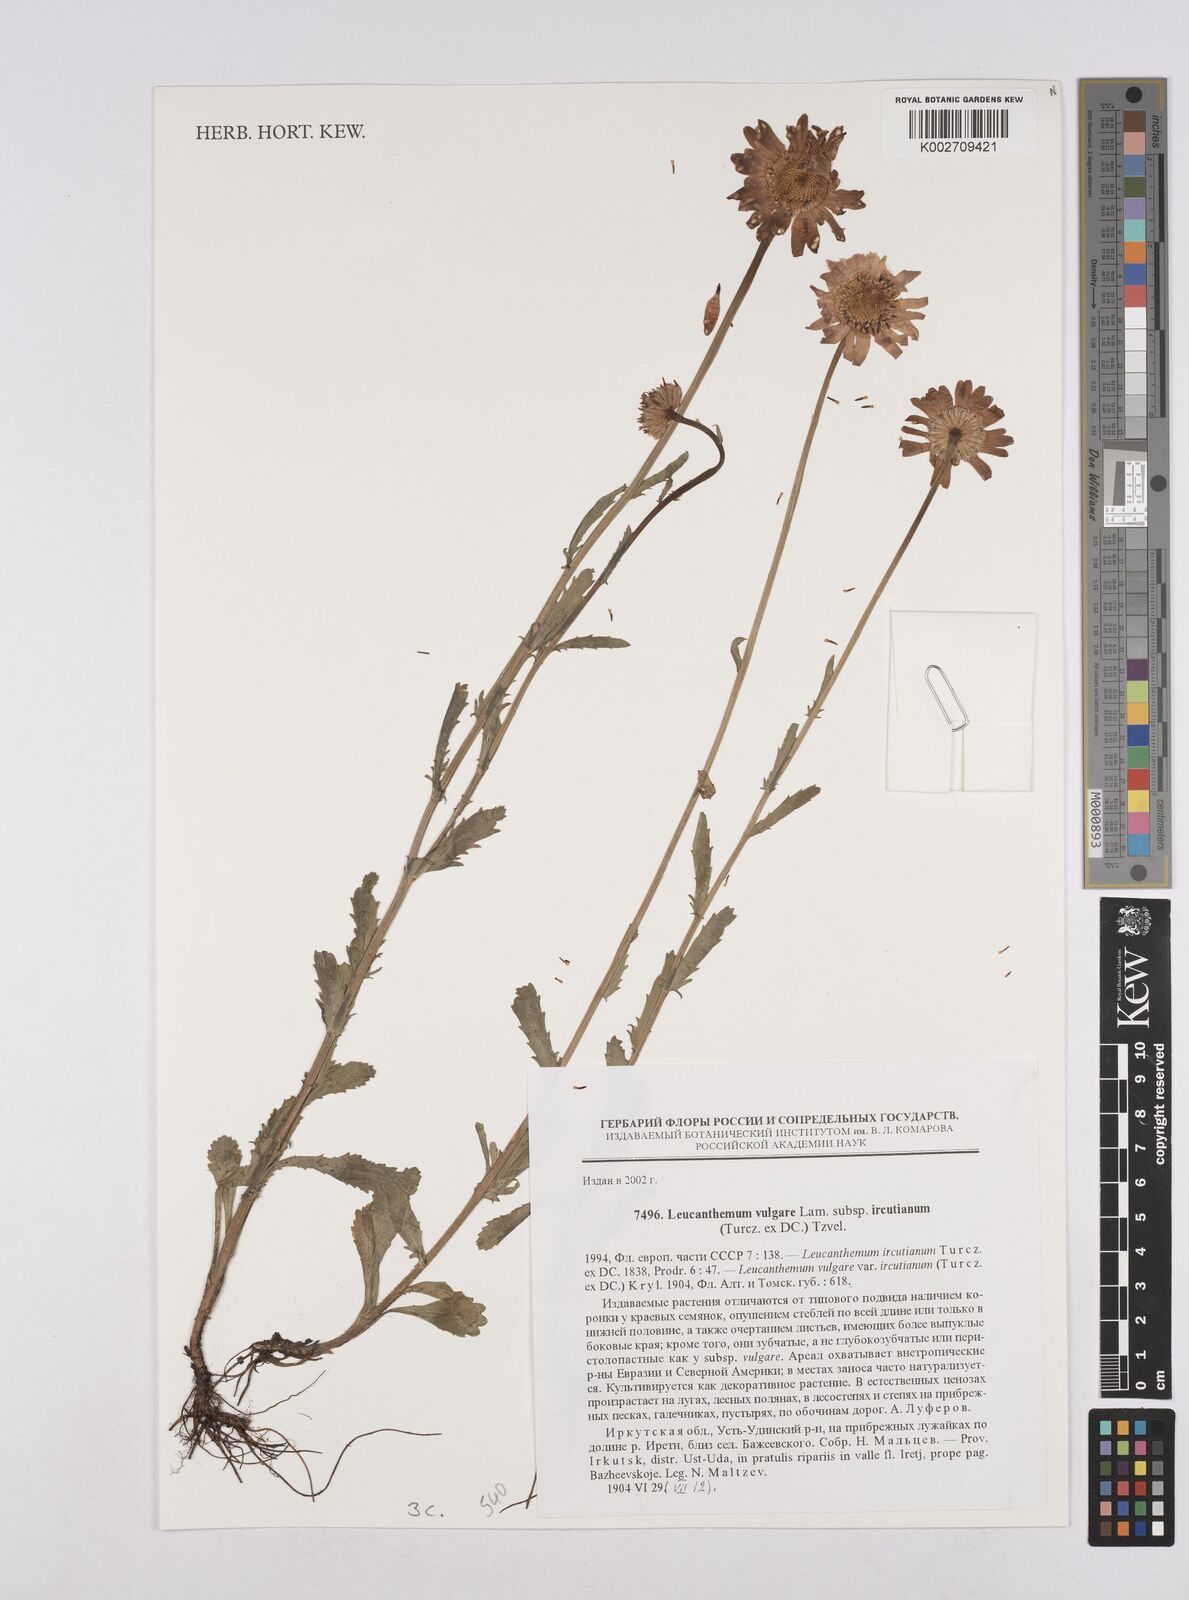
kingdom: Plantae
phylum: Tracheophyta
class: Magnoliopsida
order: Asterales
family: Asteraceae
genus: Leucanthemum
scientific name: Leucanthemum vulgare
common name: Oxeye daisy
